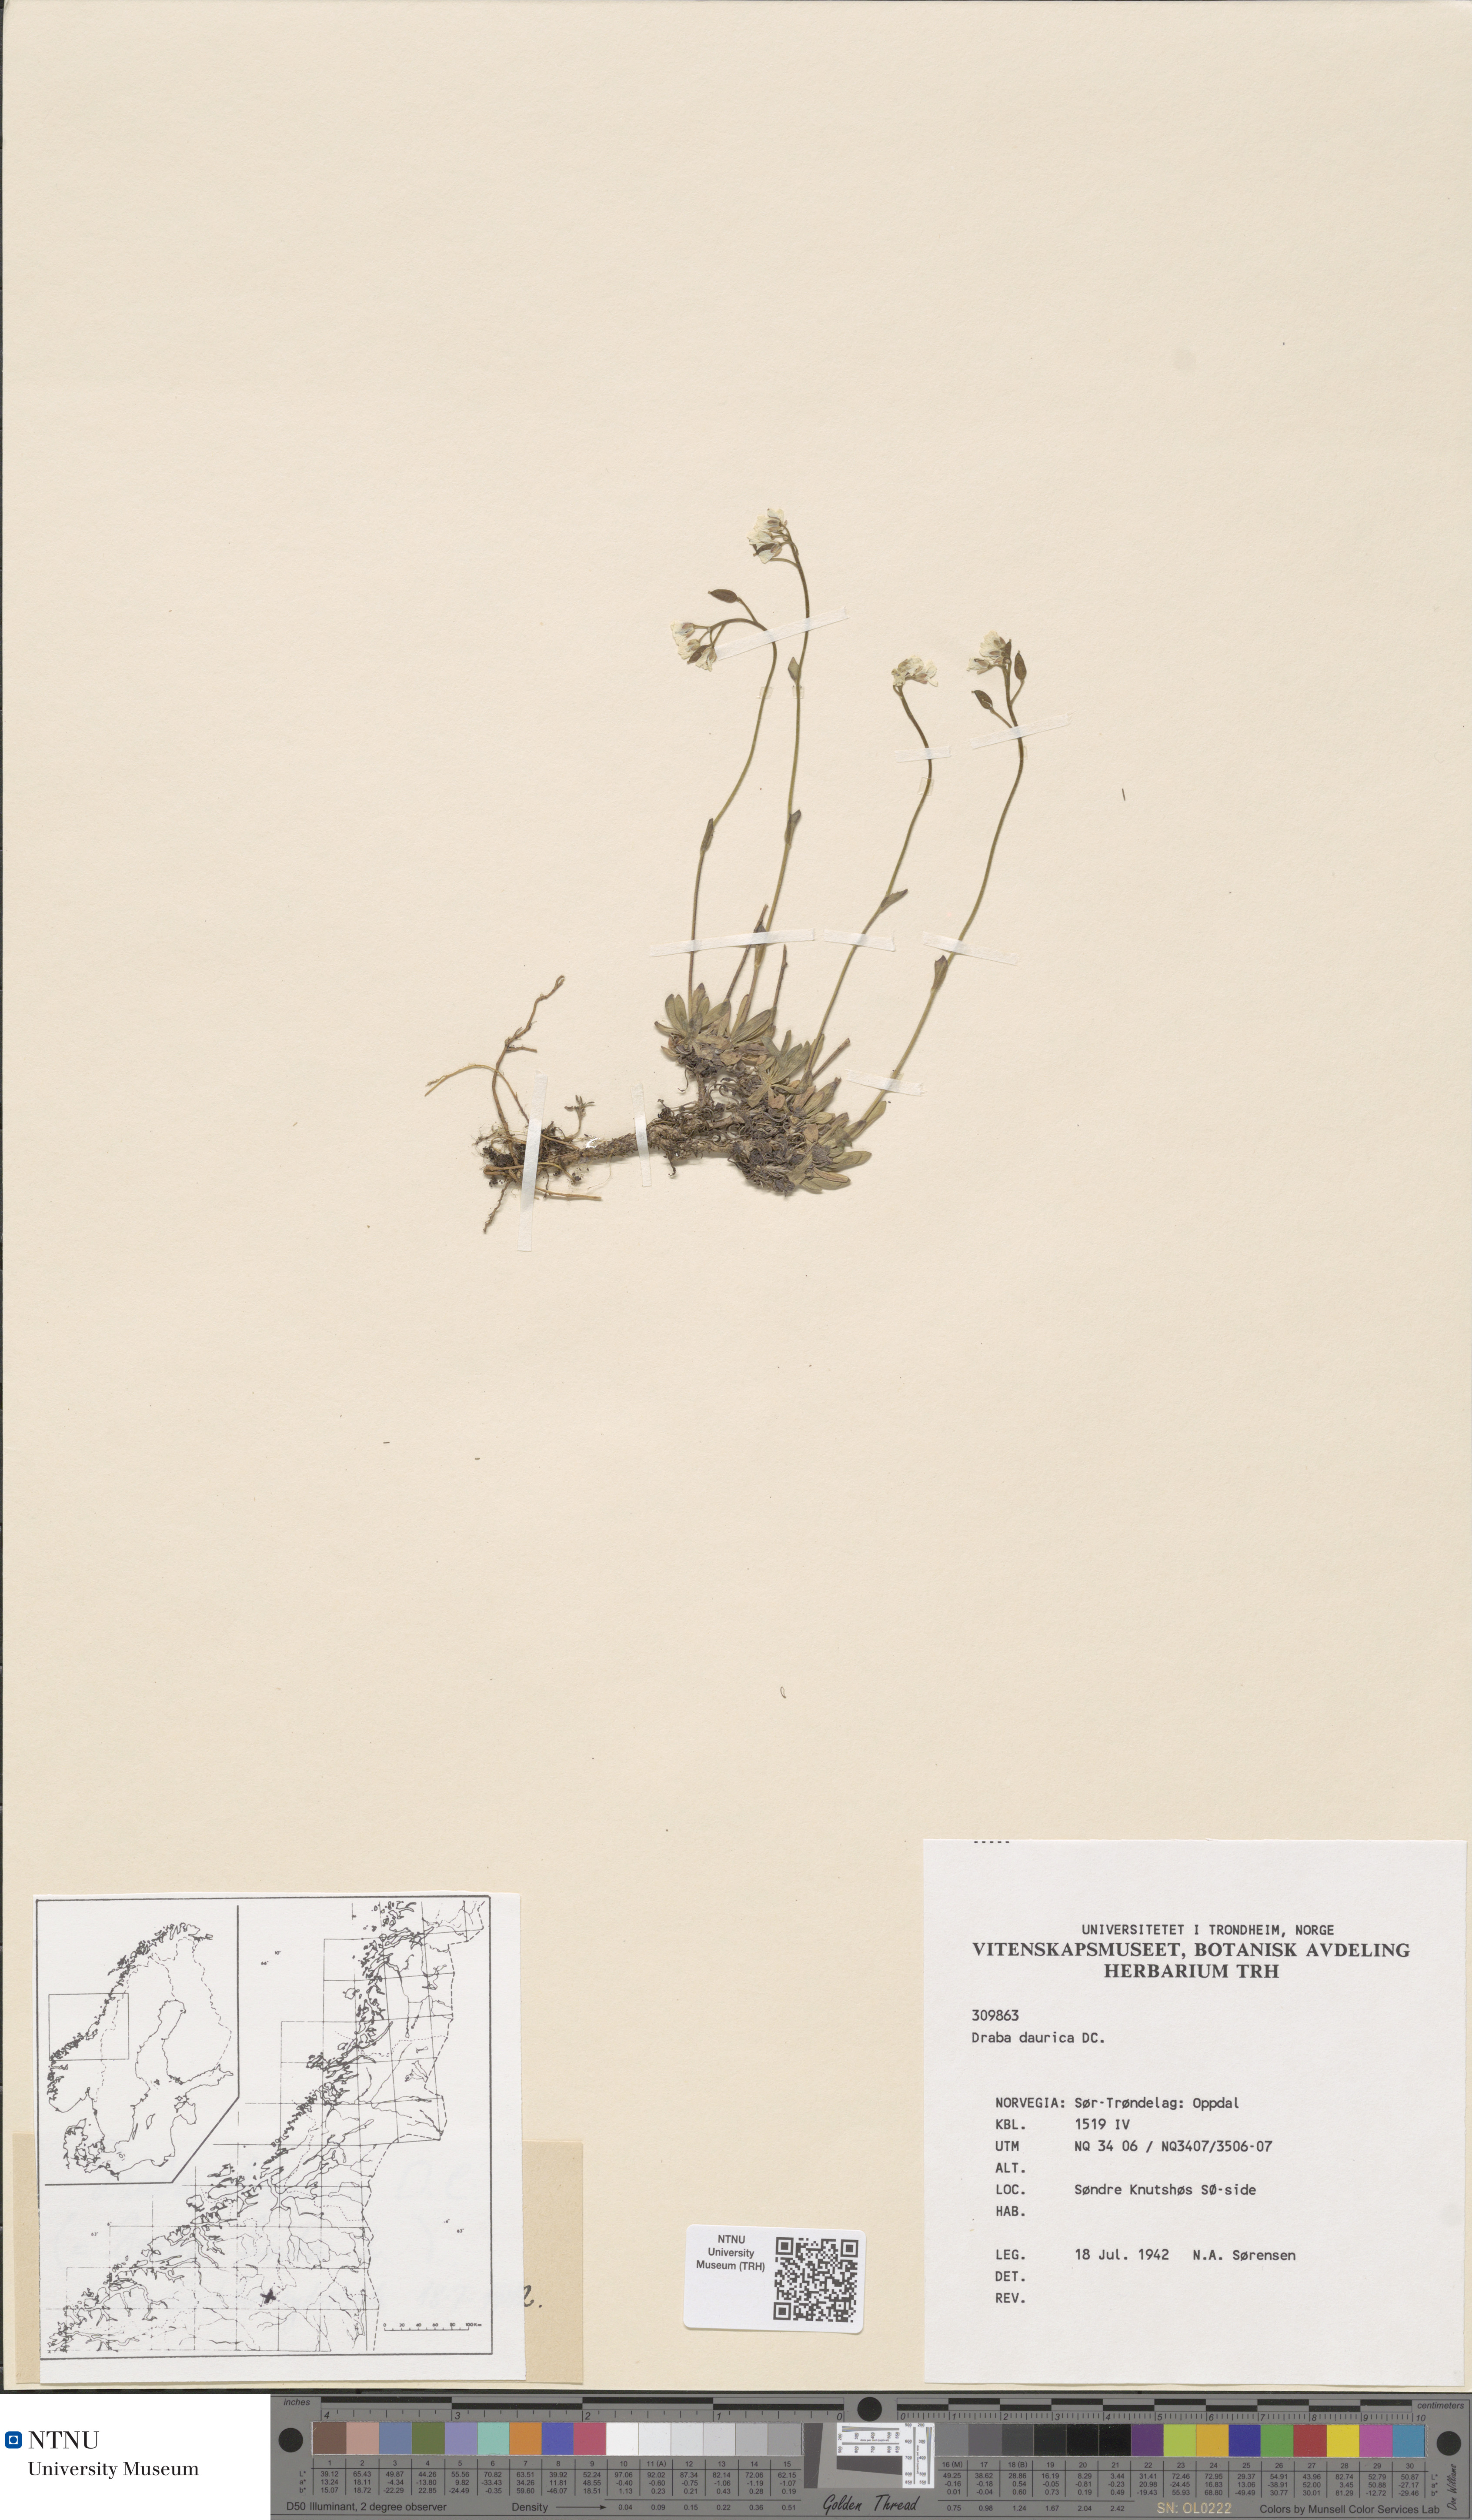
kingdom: Plantae
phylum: Tracheophyta
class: Magnoliopsida
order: Brassicales
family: Brassicaceae
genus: Draba
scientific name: Draba glabella
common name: Glaucous draba
